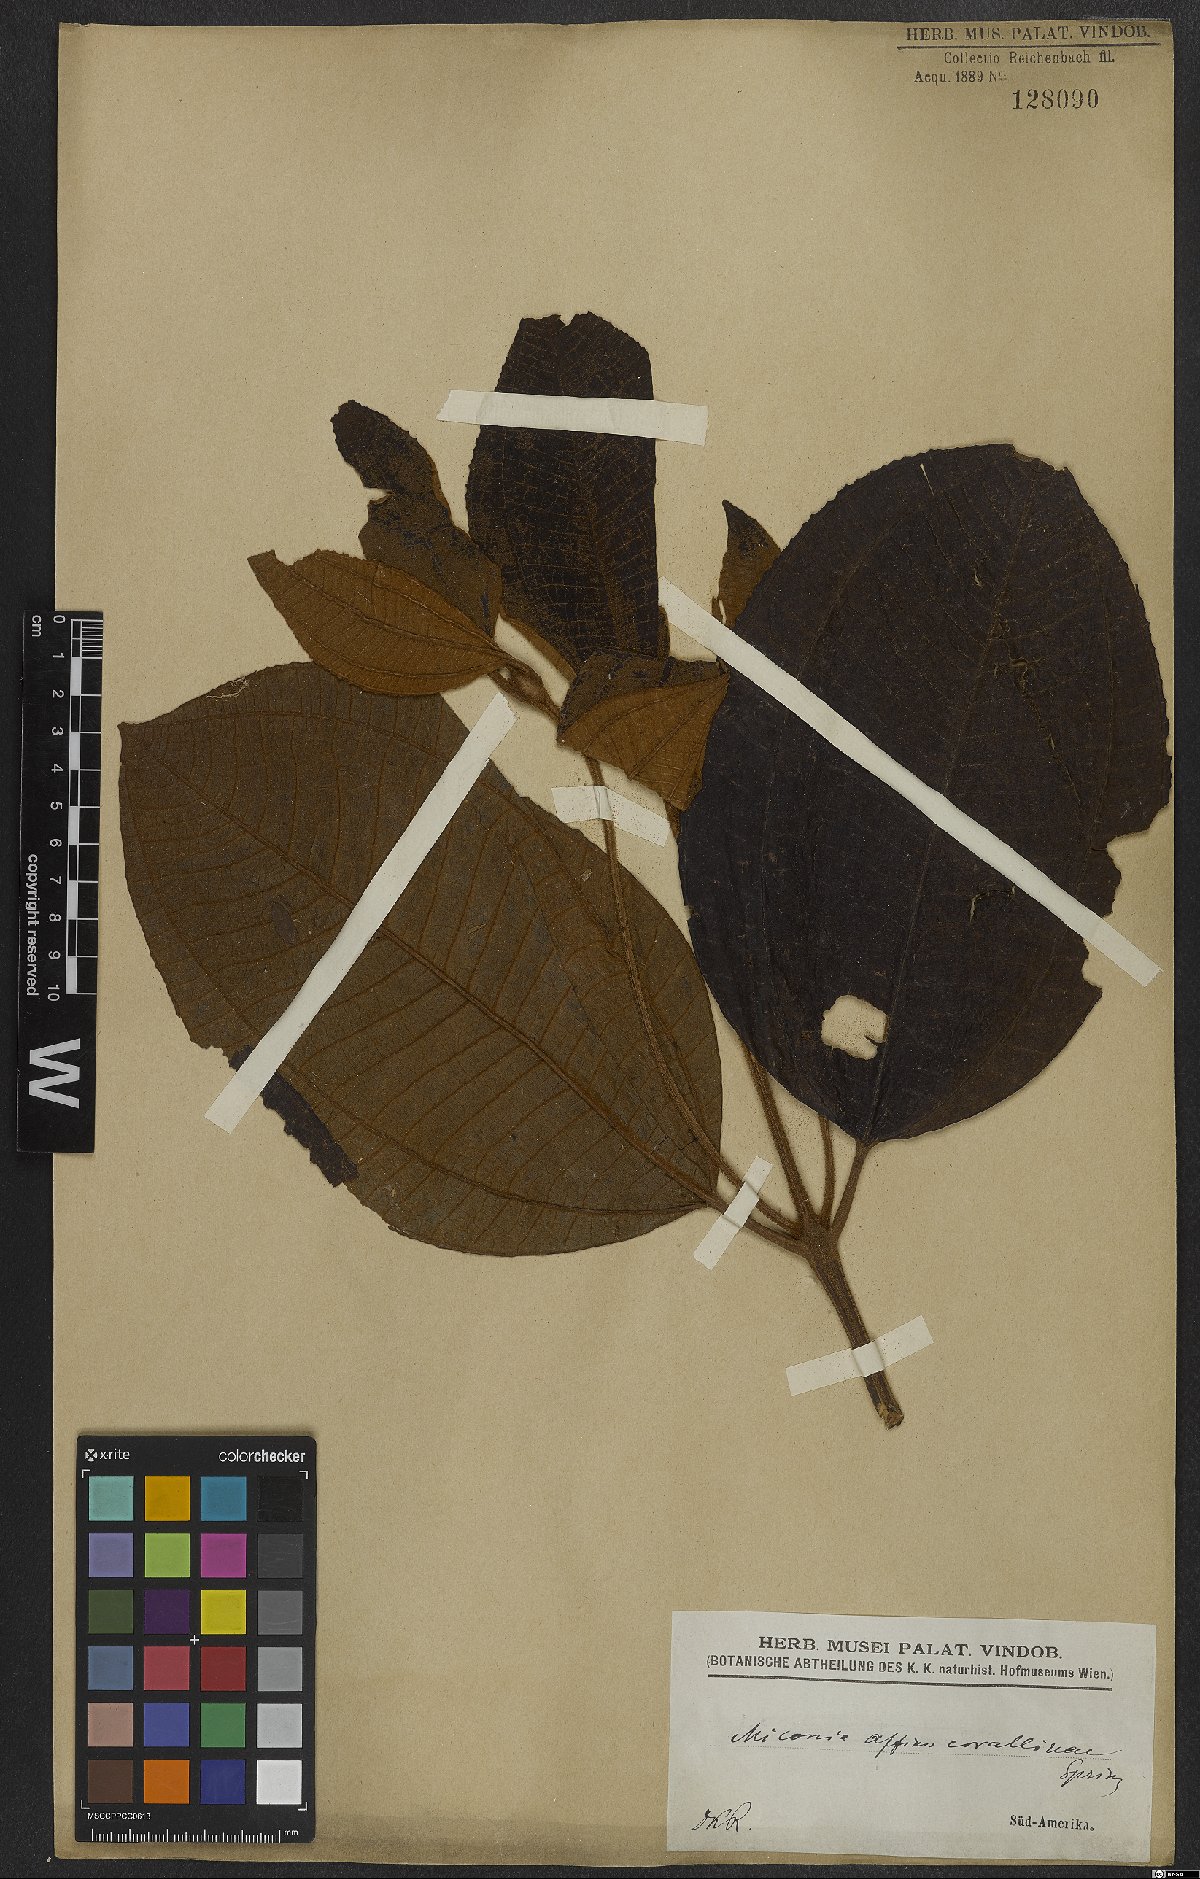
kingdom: Plantae
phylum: Tracheophyta
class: Magnoliopsida
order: Myrtales
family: Melastomataceae
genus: Miconia
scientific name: Miconia corallina
